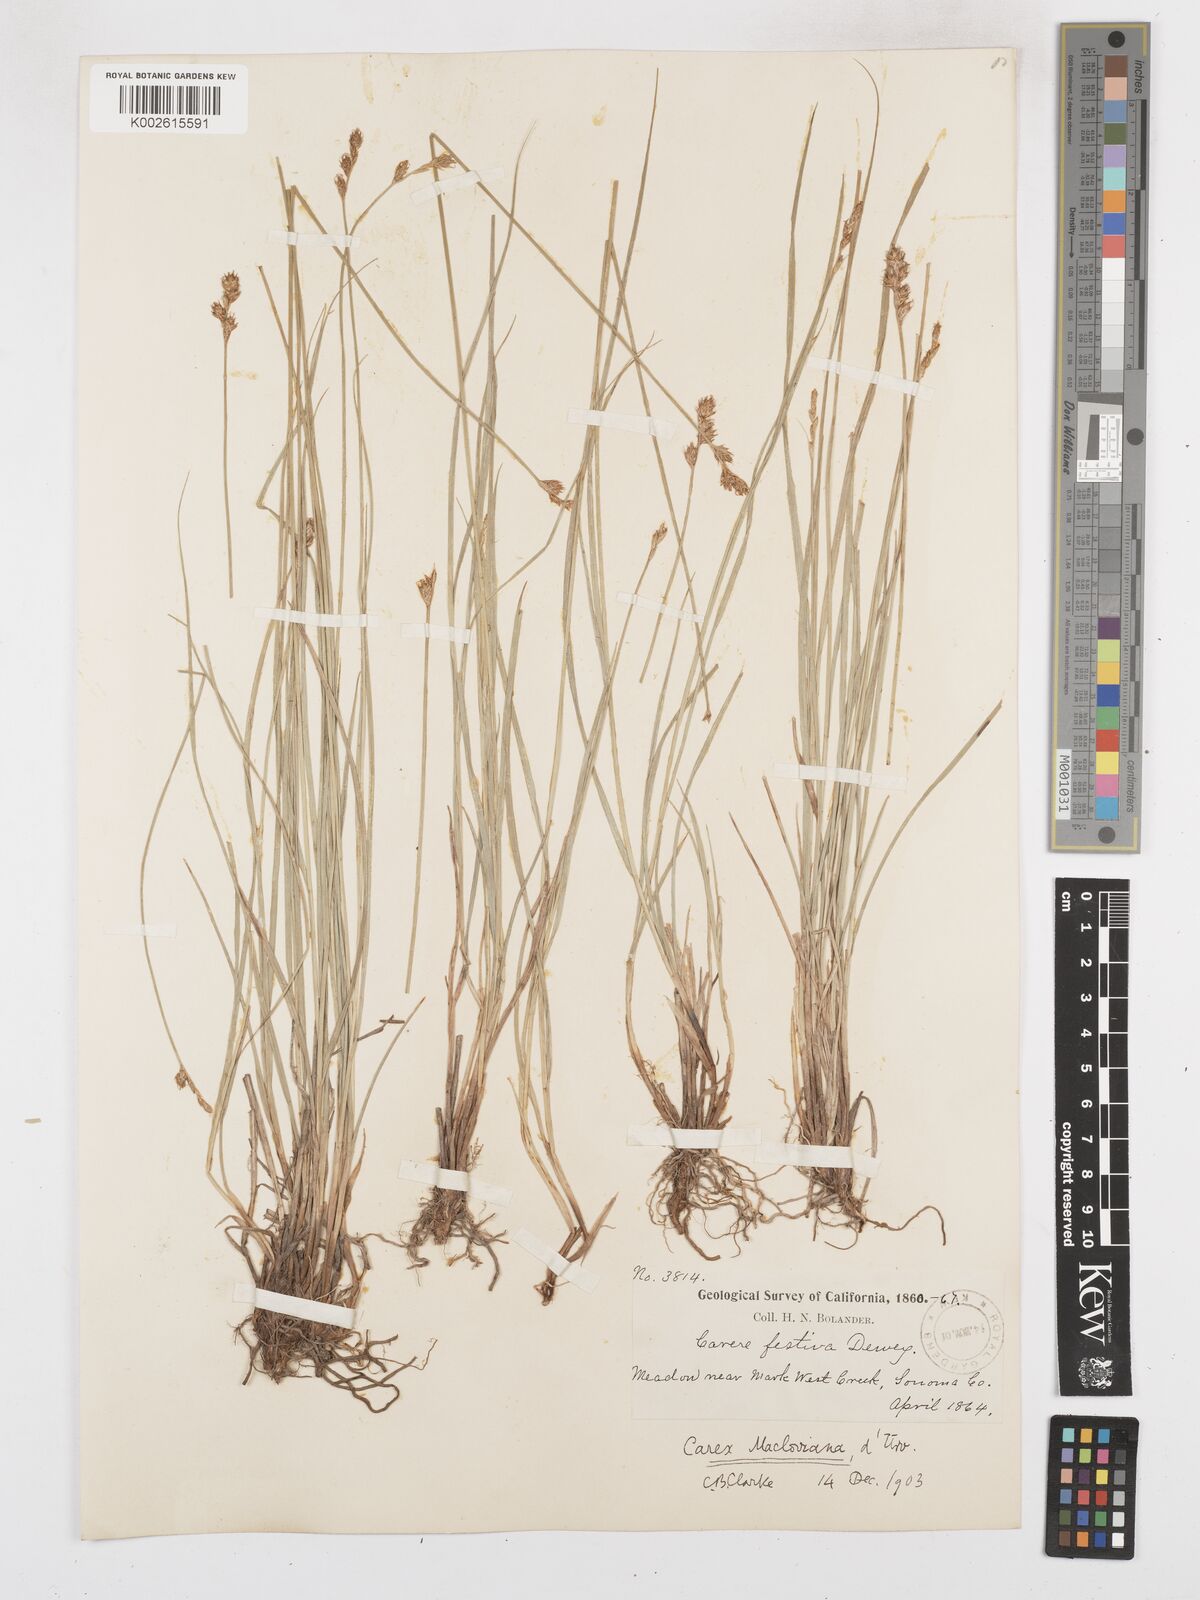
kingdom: Plantae
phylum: Tracheophyta
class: Liliopsida
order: Poales
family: Cyperaceae
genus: Carex
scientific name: Carex macloviana
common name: Falkland island sedge
